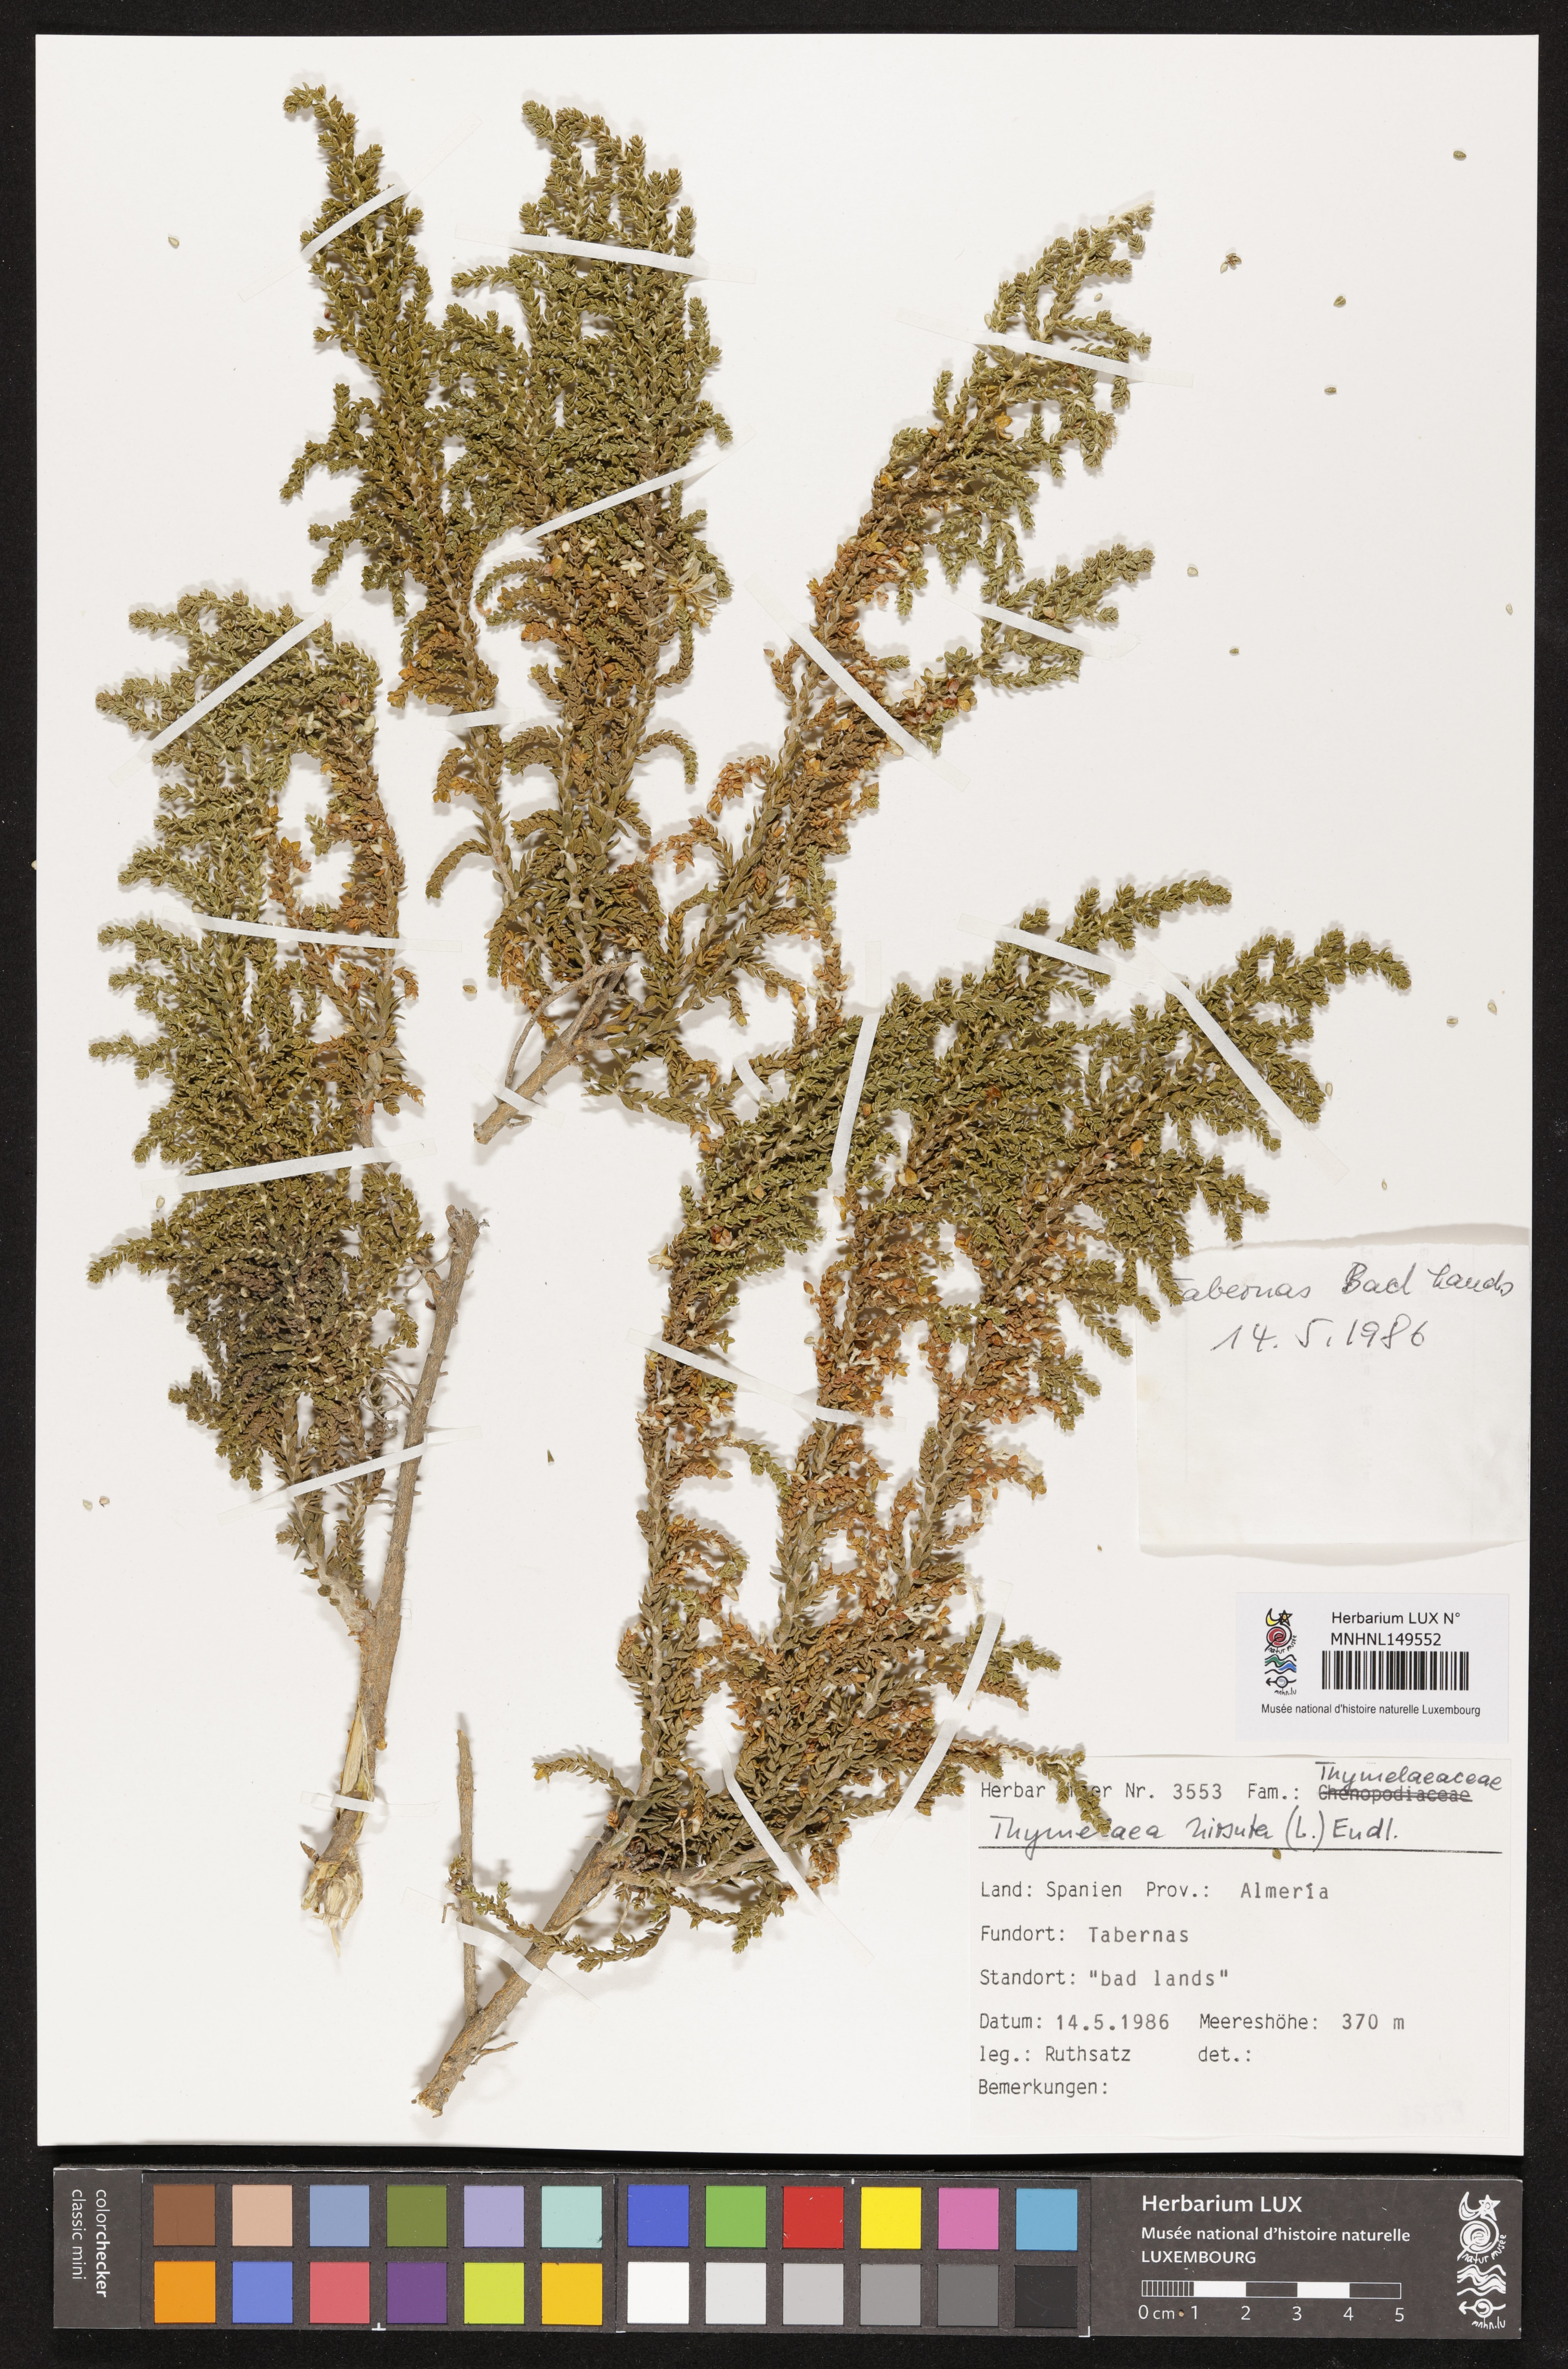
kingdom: Plantae
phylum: Tracheophyta
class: Magnoliopsida
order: Malvales
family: Thymelaeaceae
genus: Thymelaea
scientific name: Thymelaea hirsuta
